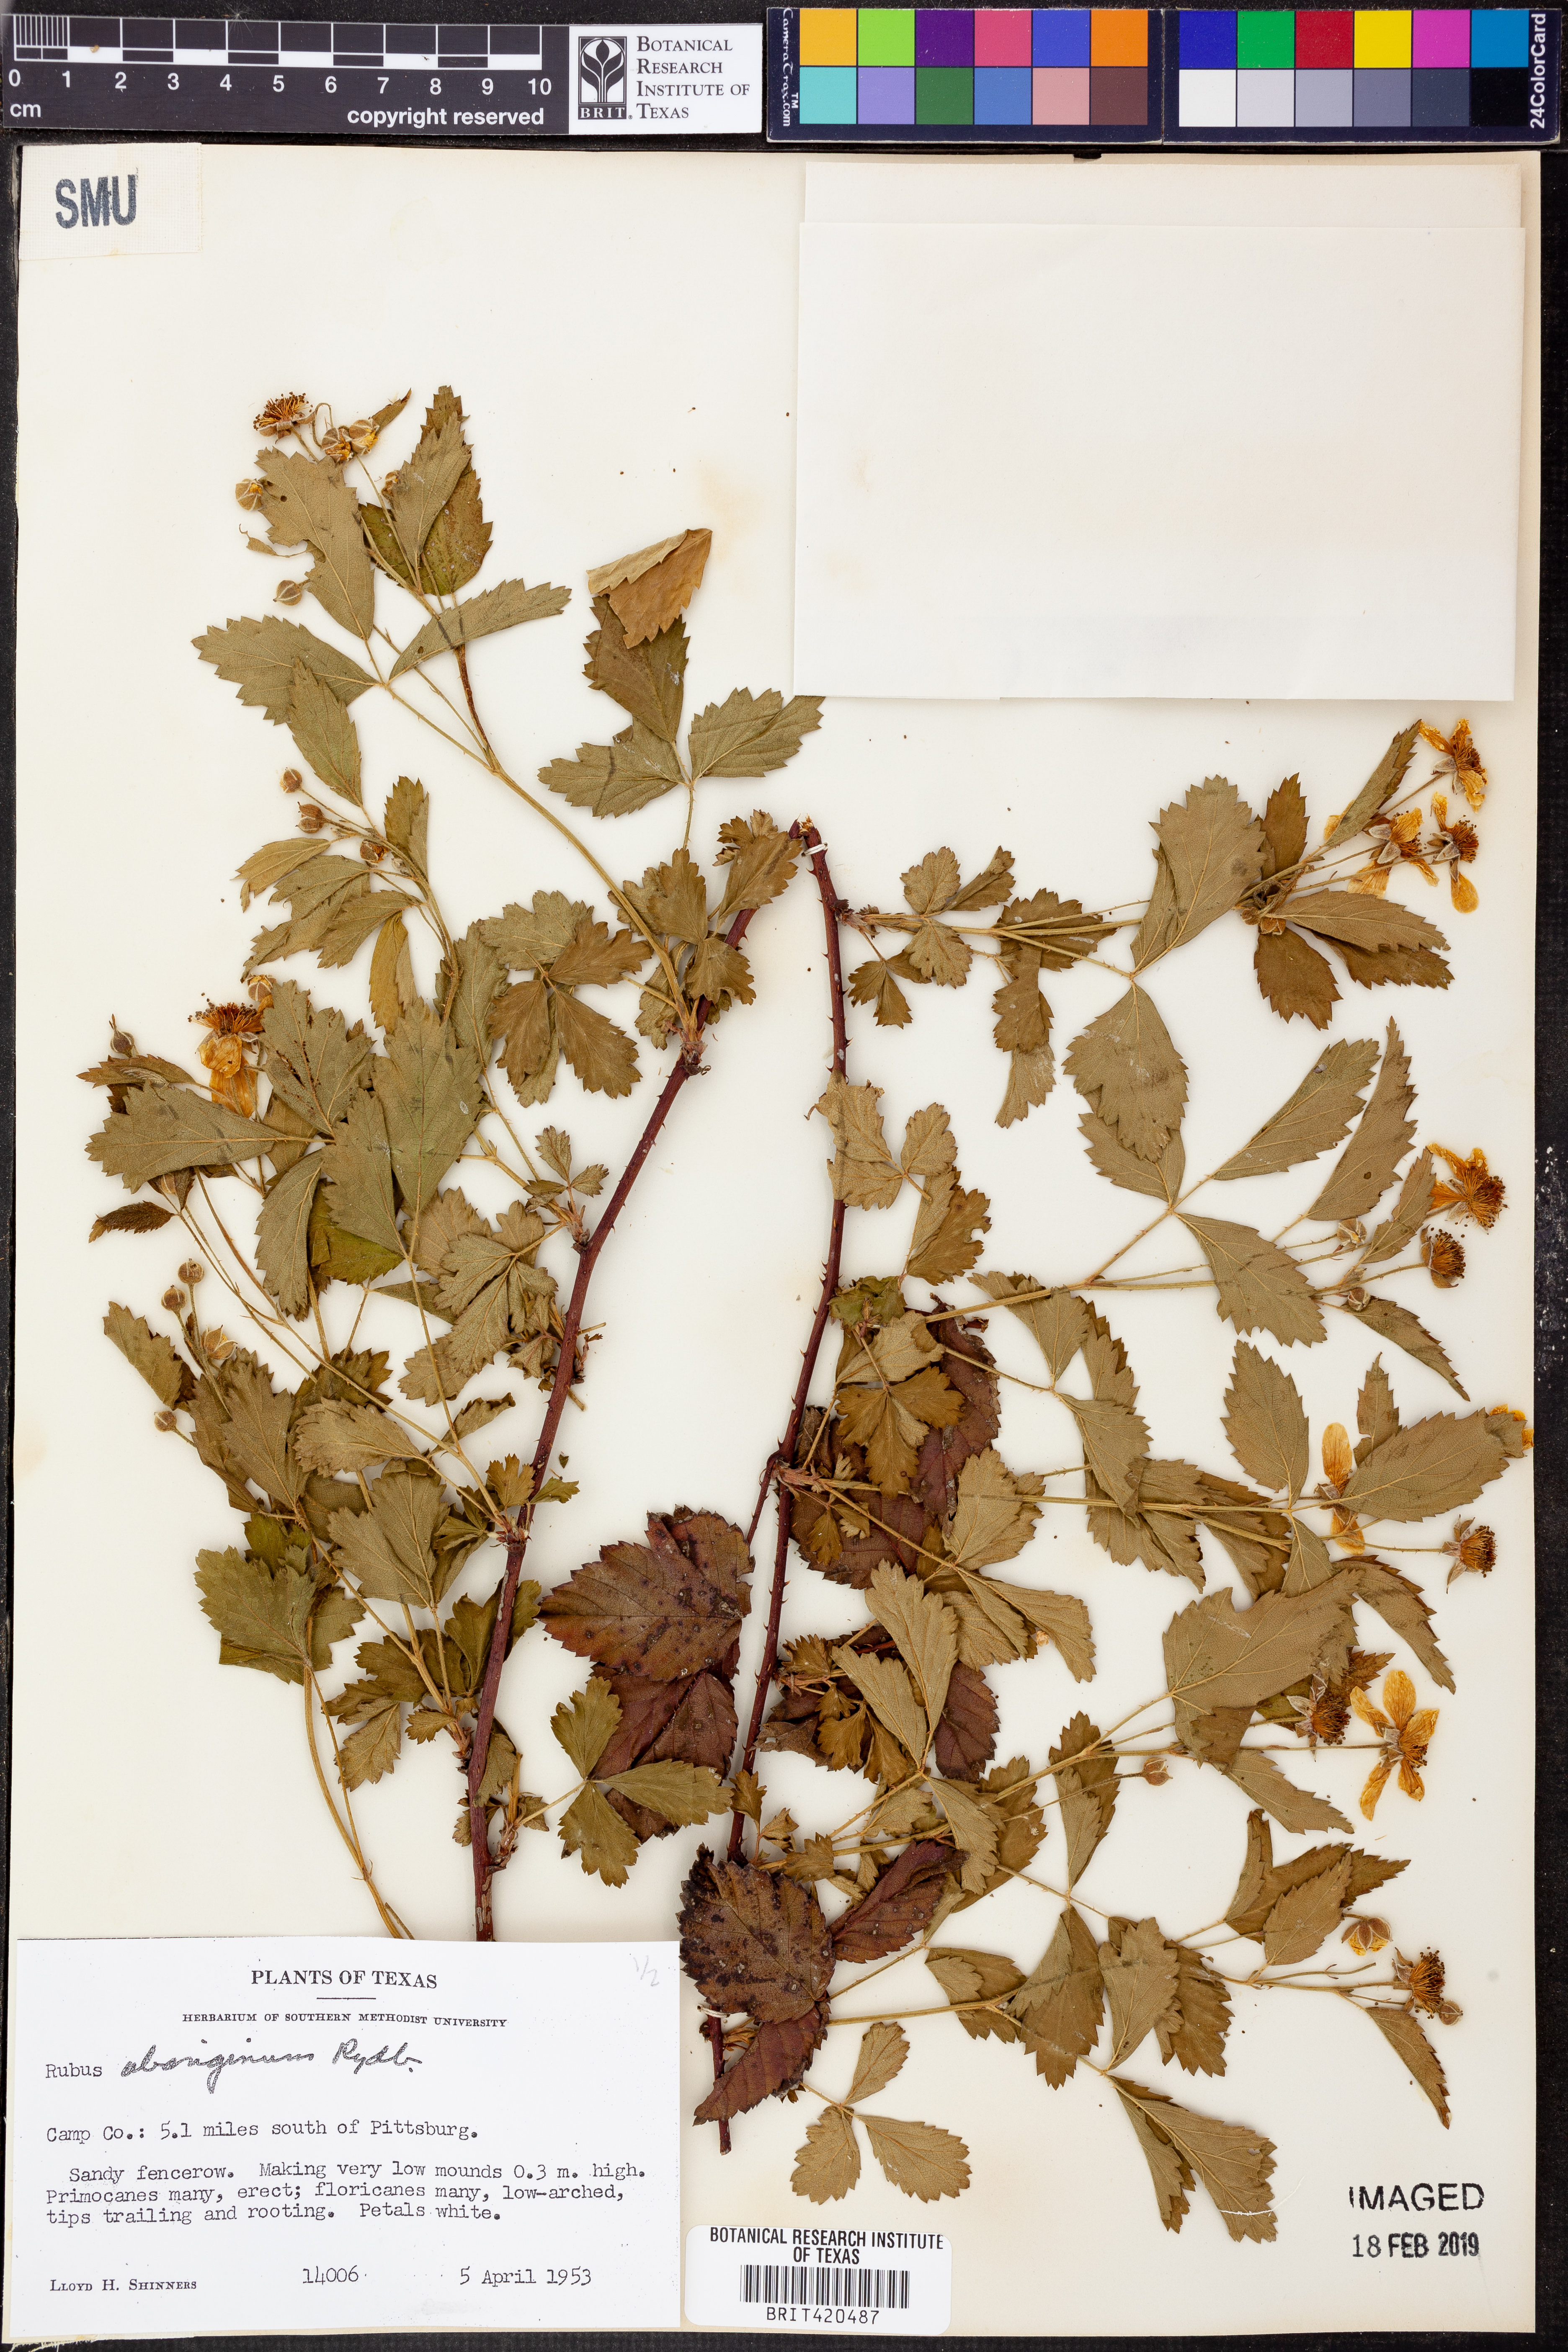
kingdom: Plantae
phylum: Tracheophyta
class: Magnoliopsida
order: Rosales
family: Rosaceae
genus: Rubus
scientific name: Rubus aboriginum
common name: Mayes dewberry
